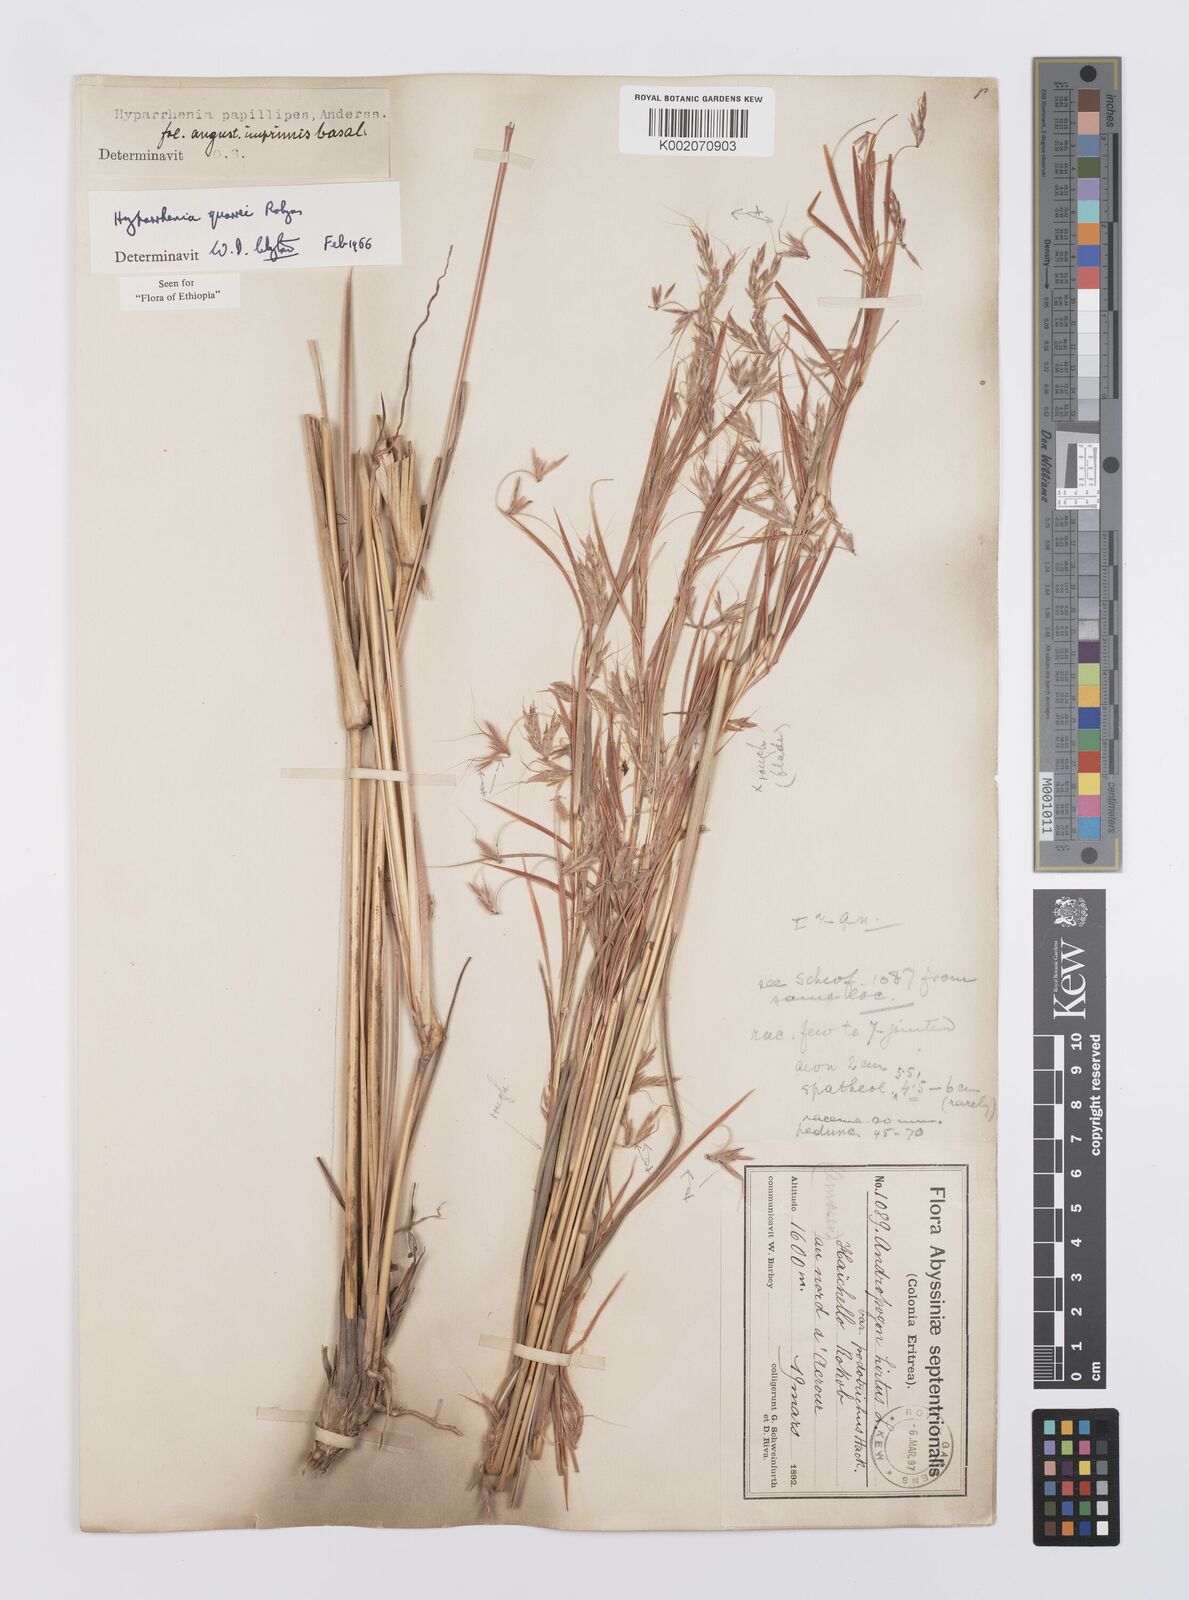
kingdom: Plantae
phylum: Tracheophyta
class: Liliopsida
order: Poales
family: Poaceae
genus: Hyparrhenia
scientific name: Hyparrhenia quarrei
